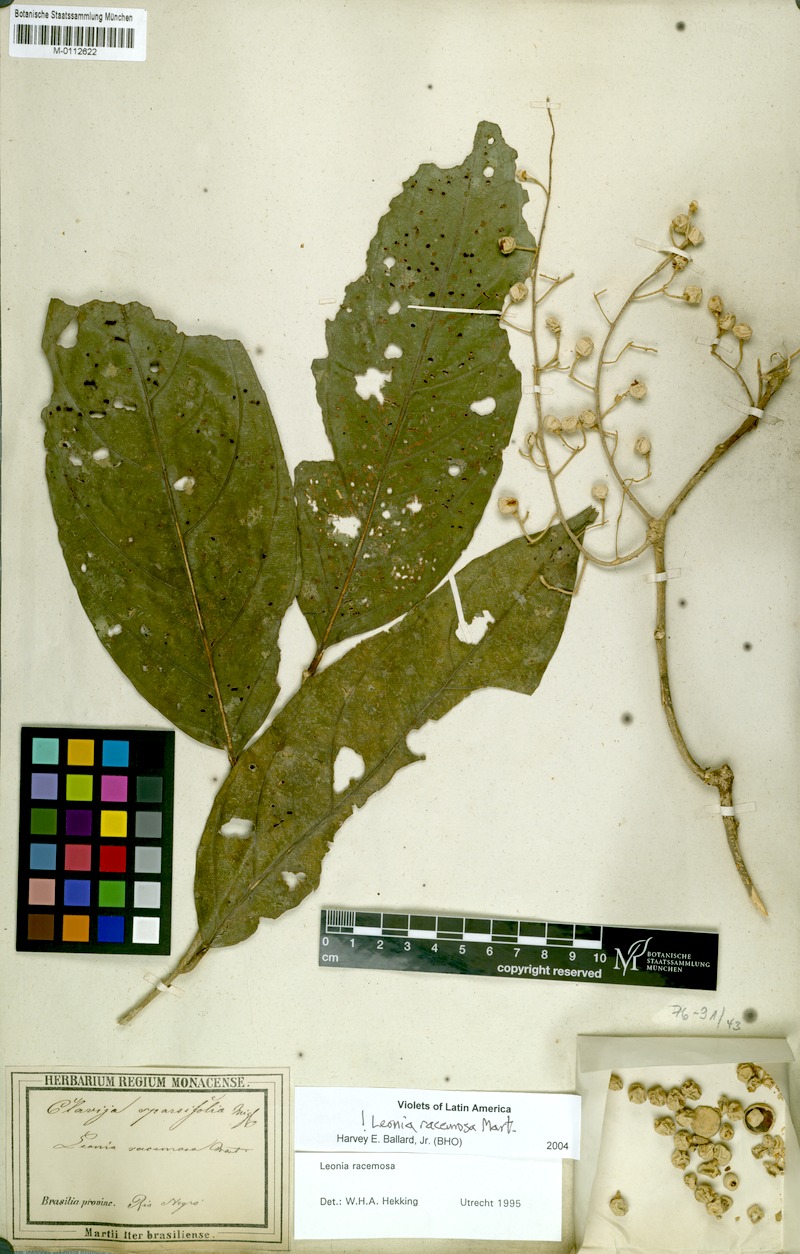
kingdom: Plantae
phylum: Tracheophyta
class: Magnoliopsida
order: Malpighiales
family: Violaceae
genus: Leonia
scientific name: Leonia racemosa
